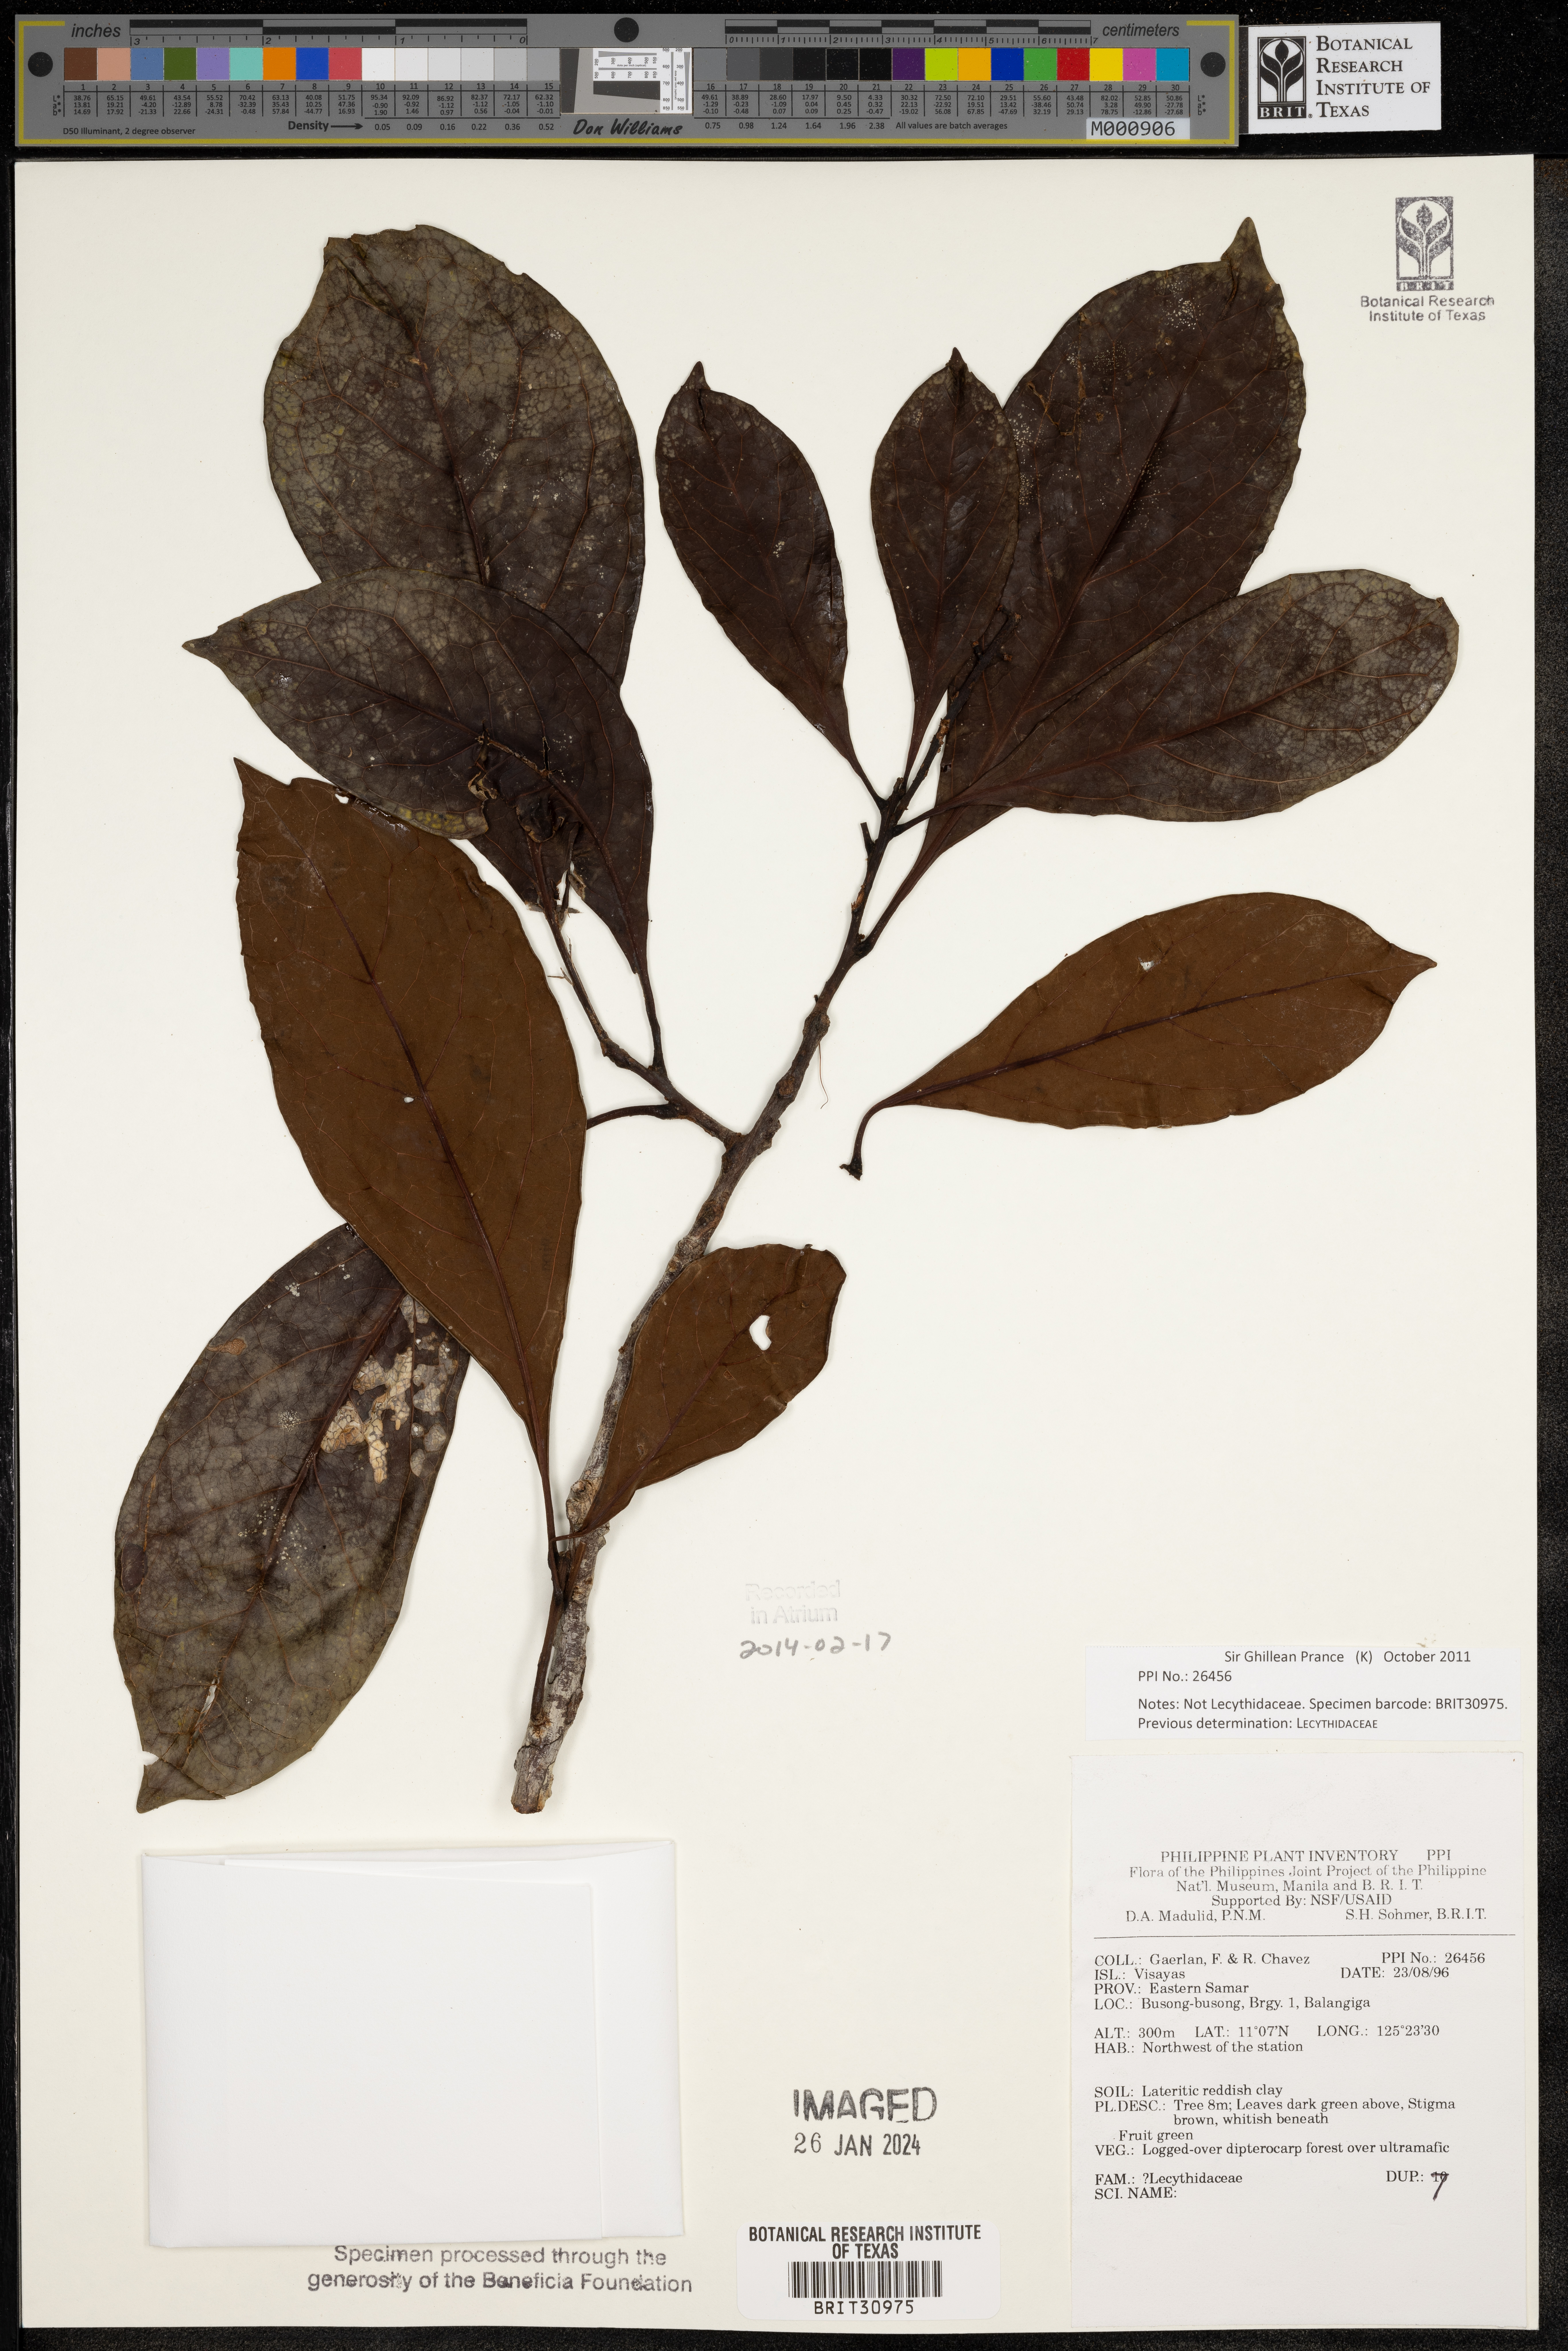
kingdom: Plantae
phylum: Tracheophyta
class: Magnoliopsida
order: Ericales
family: Lecythidaceae
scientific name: Lecythidaceae
